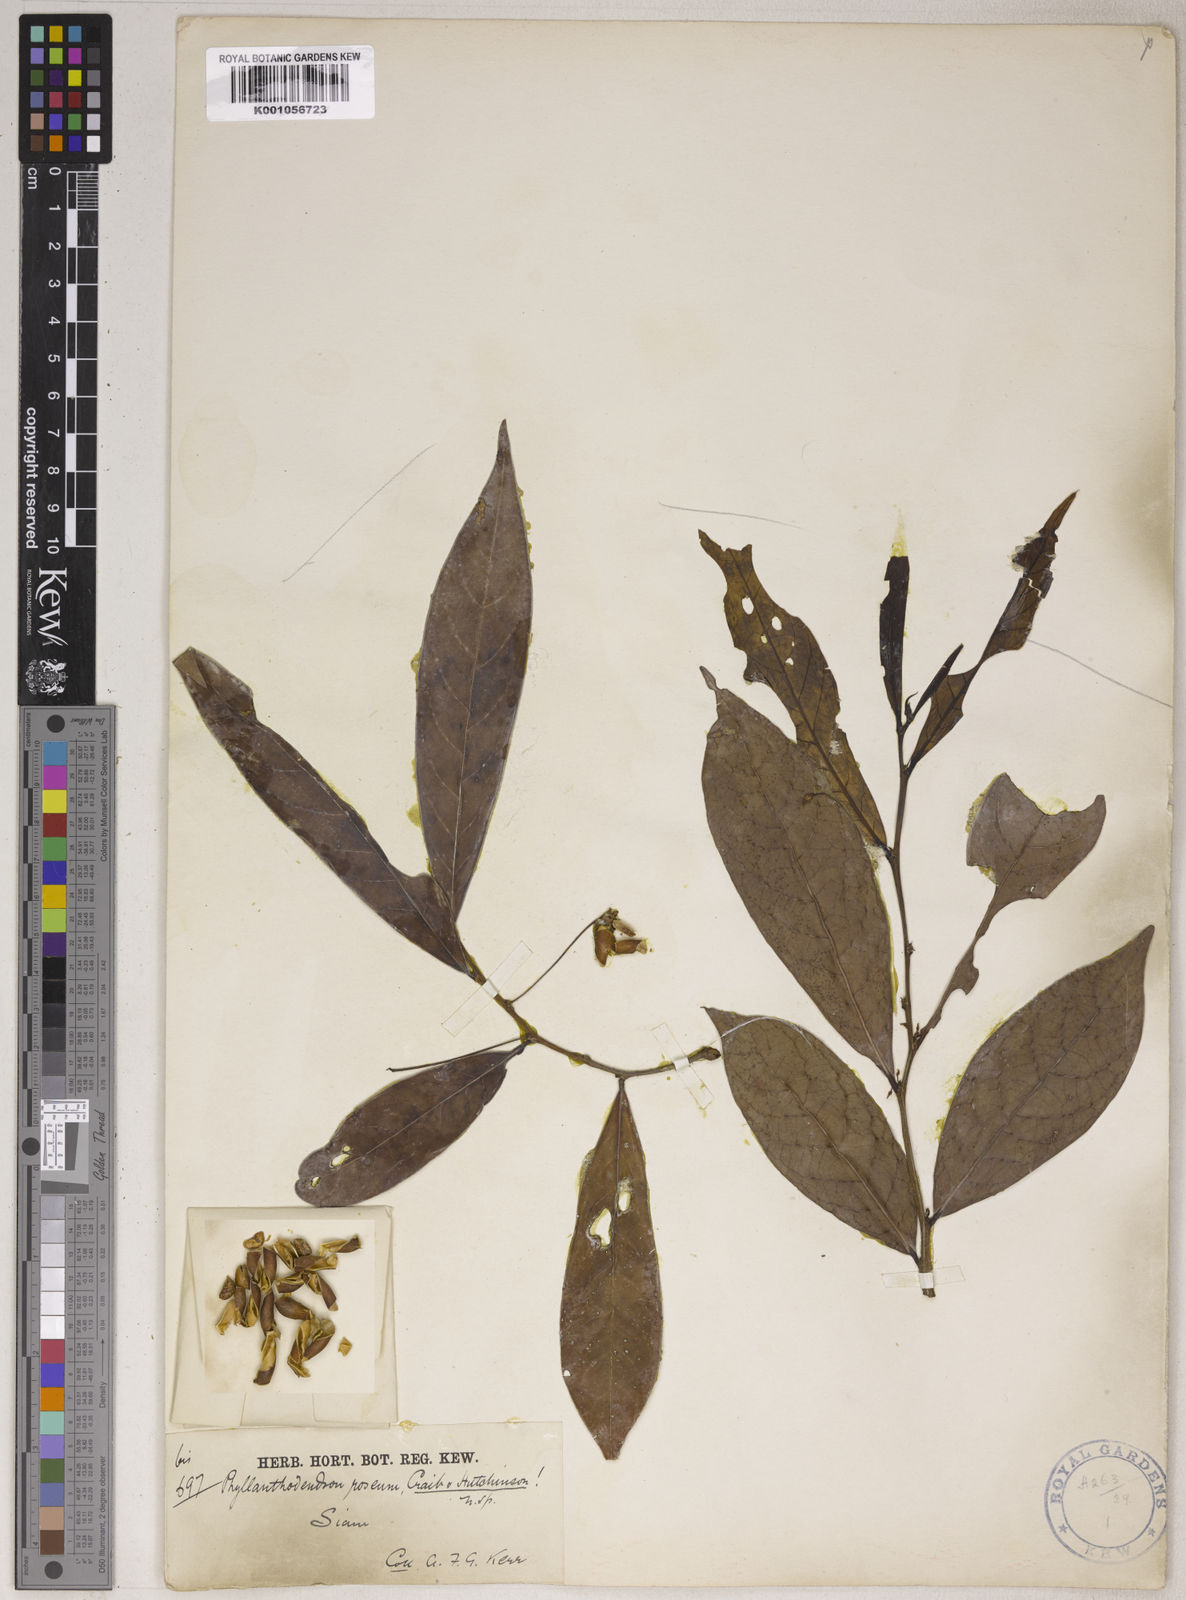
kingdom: Plantae
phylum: Tracheophyta
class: Magnoliopsida
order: Malpighiales
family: Phyllanthaceae
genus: Phyllanthus
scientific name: Phyllanthus roseus
